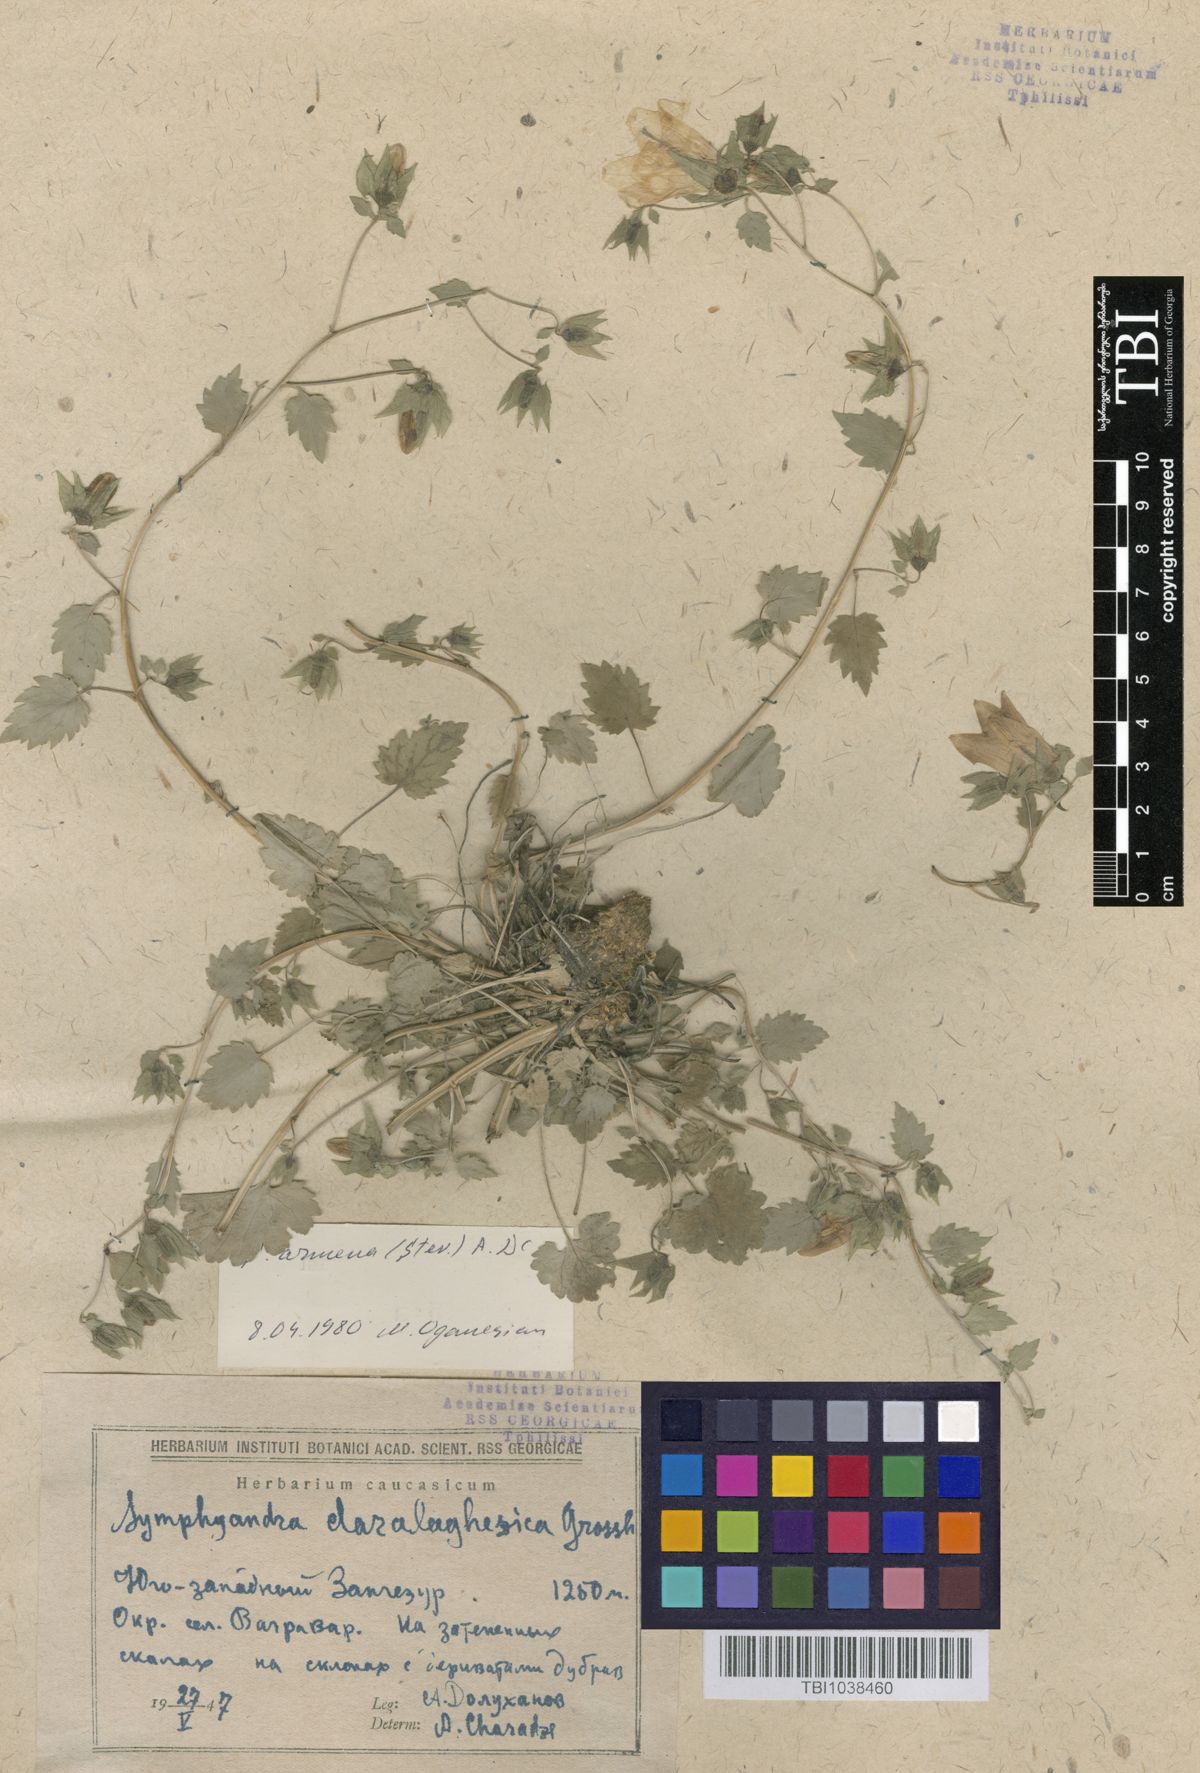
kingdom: Plantae
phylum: Tracheophyta
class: Magnoliopsida
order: Asterales
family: Campanulaceae
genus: Campanula
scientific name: Campanula armena
